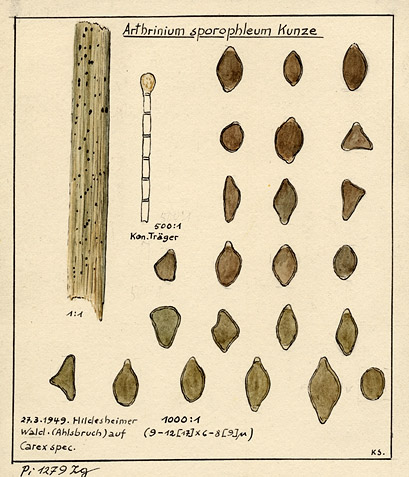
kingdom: Plantae
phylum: Tracheophyta
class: Liliopsida
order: Poales
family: Cyperaceae
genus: Carex
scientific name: Carex
